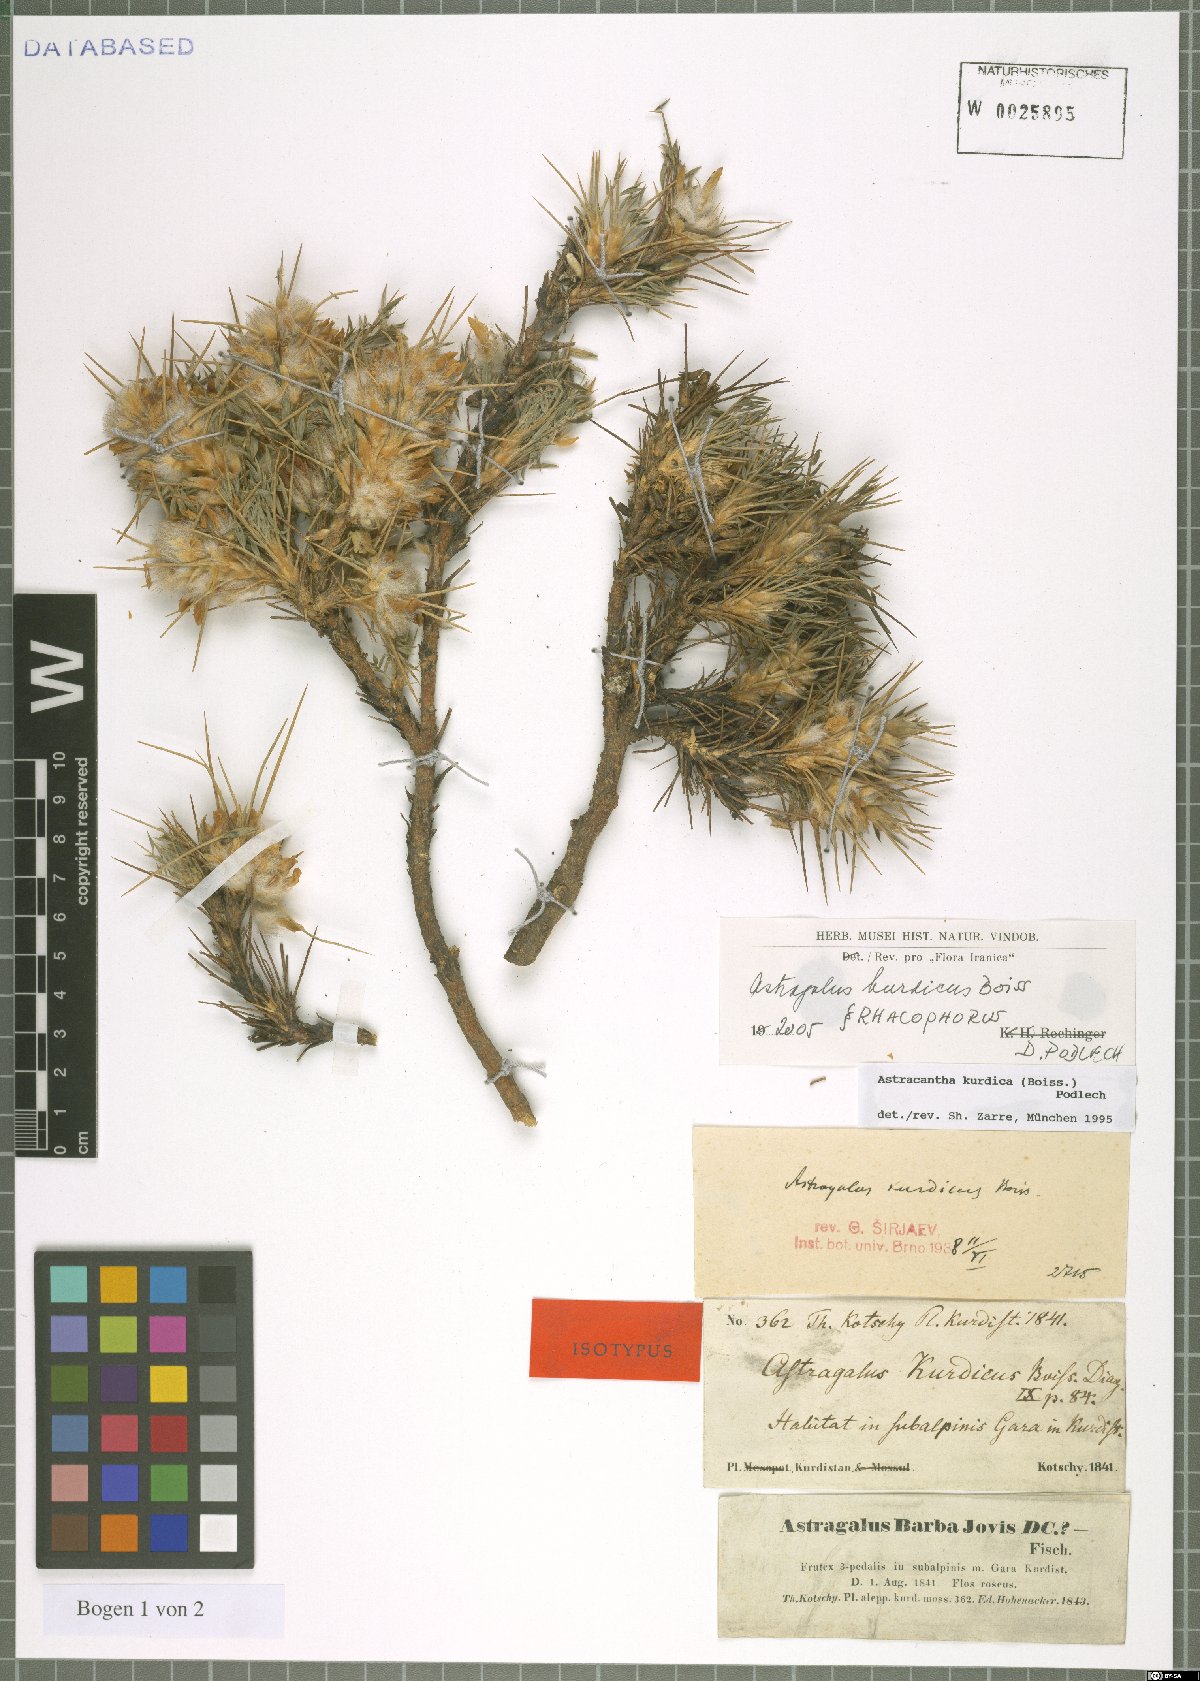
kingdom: Plantae
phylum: Tracheophyta
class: Magnoliopsida
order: Fabales
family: Fabaceae
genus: Astragalus
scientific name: Astragalus kurdicus
